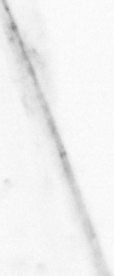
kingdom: Animalia
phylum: Chaetognatha
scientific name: Chaetognatha
